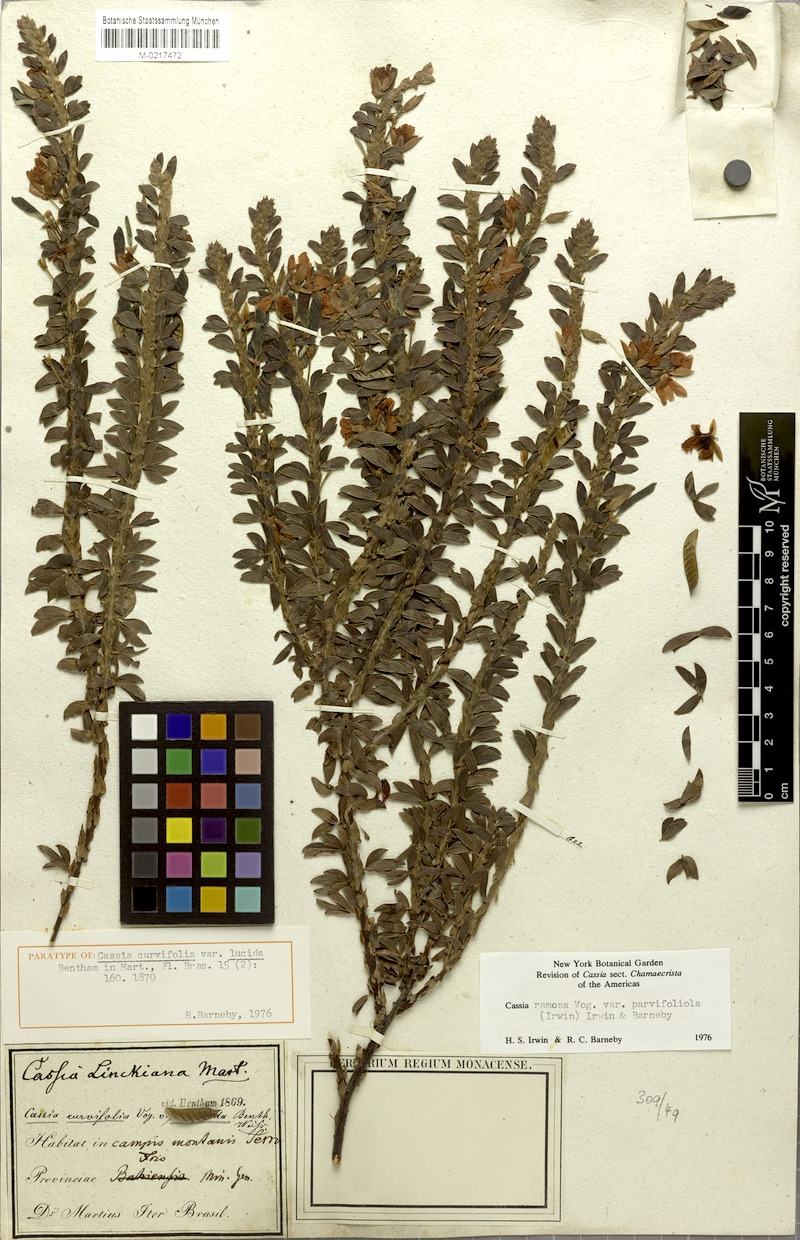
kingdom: Plantae
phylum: Tracheophyta
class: Magnoliopsida
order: Fabales
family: Fabaceae
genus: Chamaecrista
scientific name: Chamaecrista ramosa
